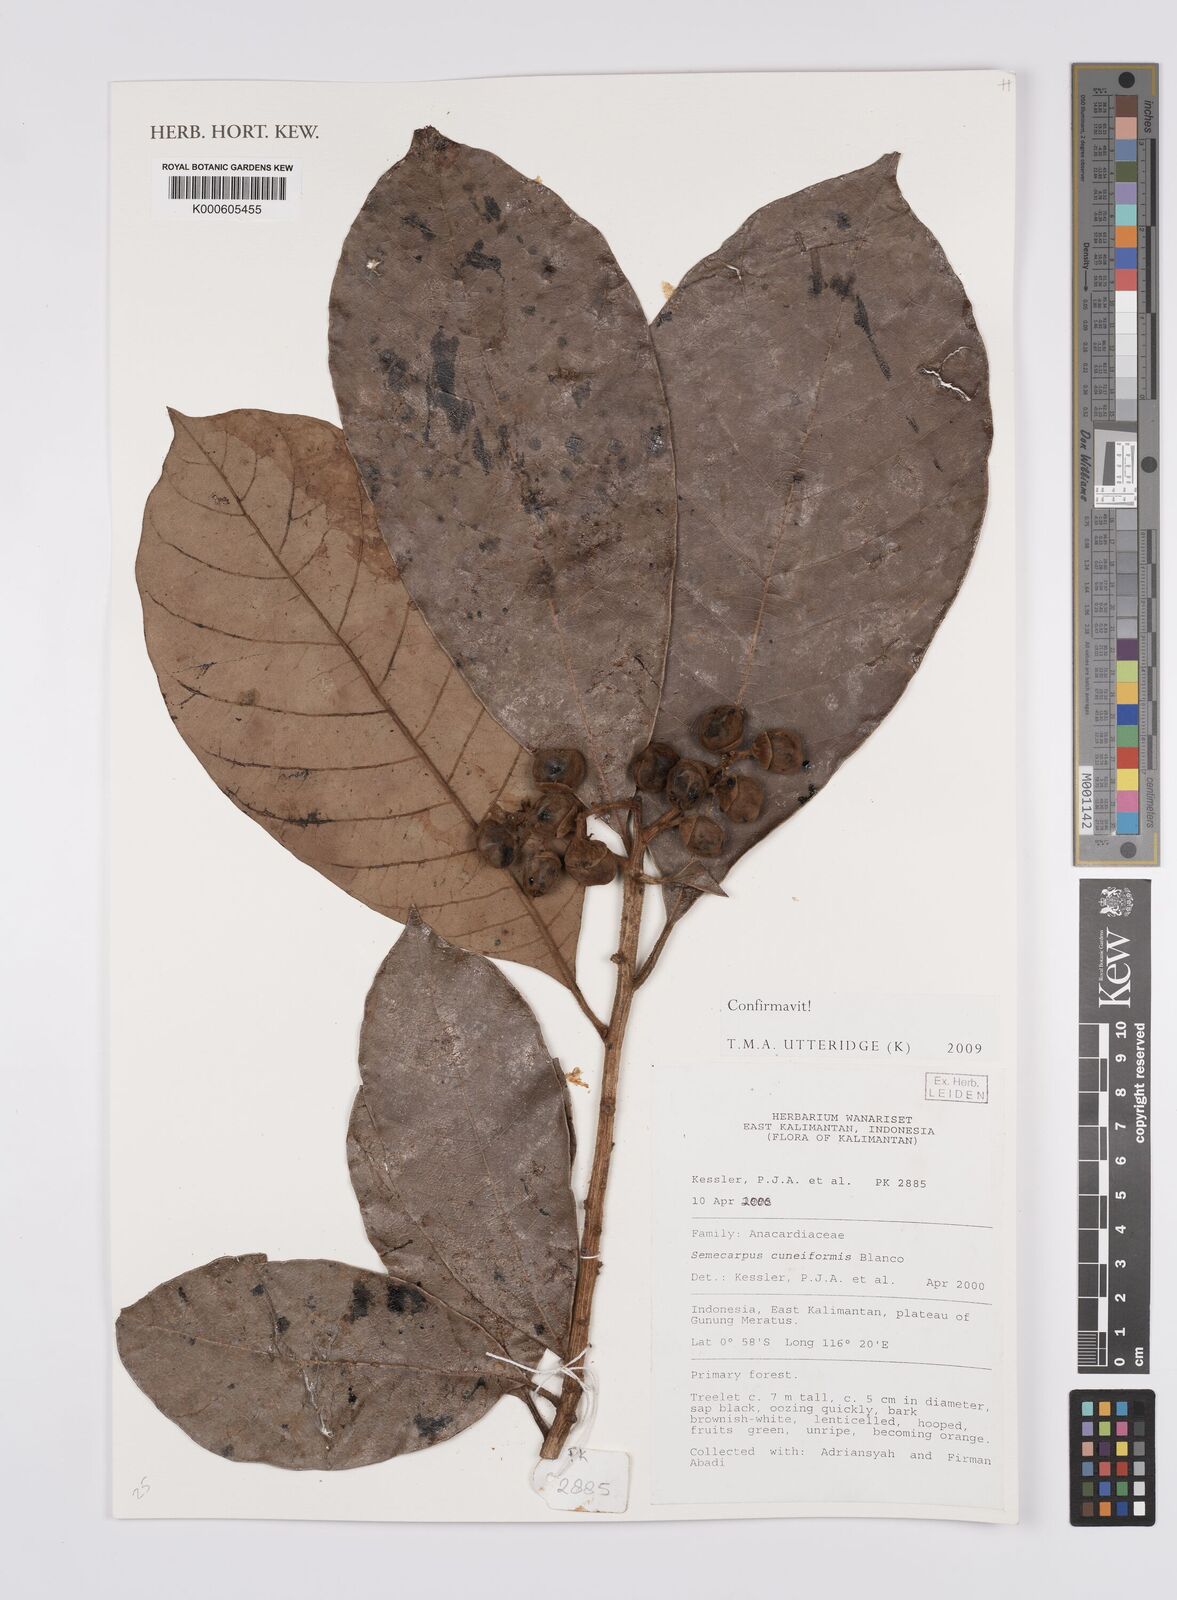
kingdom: Plantae
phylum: Tracheophyta
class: Magnoliopsida
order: Sapindales
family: Anacardiaceae
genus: Semecarpus
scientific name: Semecarpus cuneiformis
